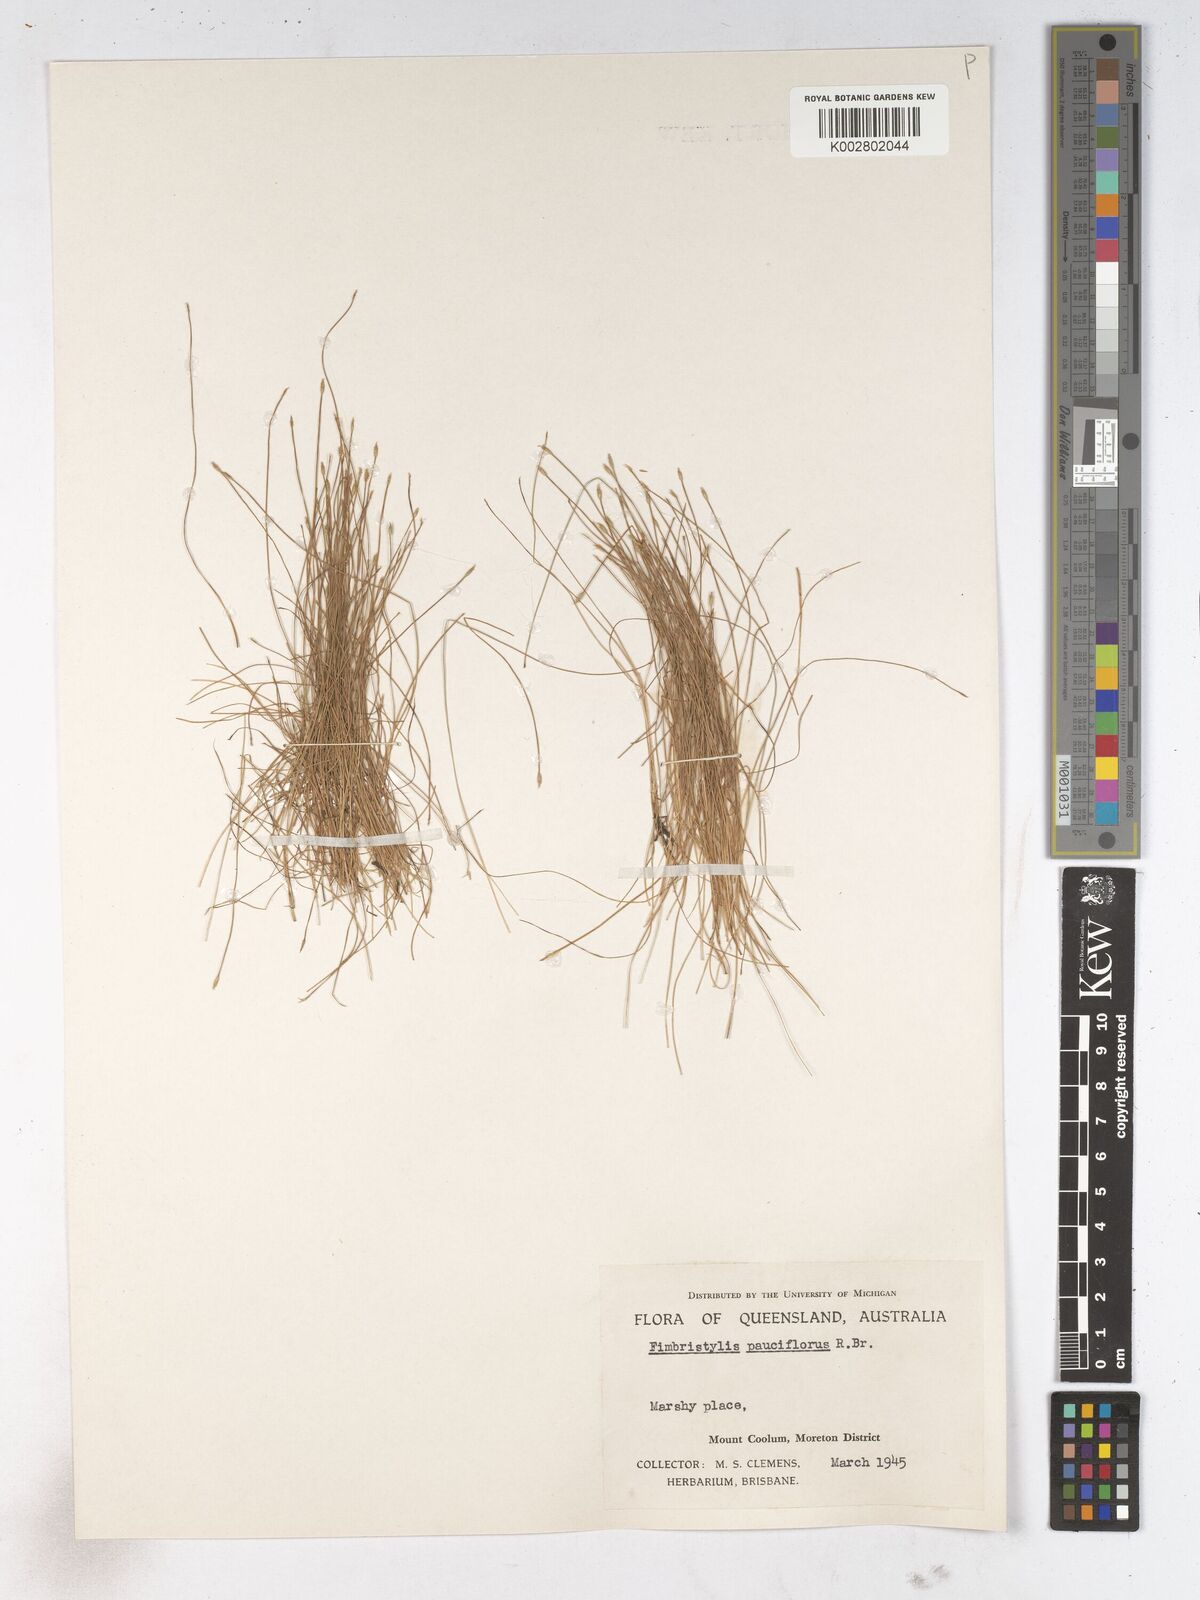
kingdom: Plantae
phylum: Tracheophyta
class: Liliopsida
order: Poales
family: Cyperaceae
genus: Fimbristylis
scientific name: Fimbristylis pauciflora
